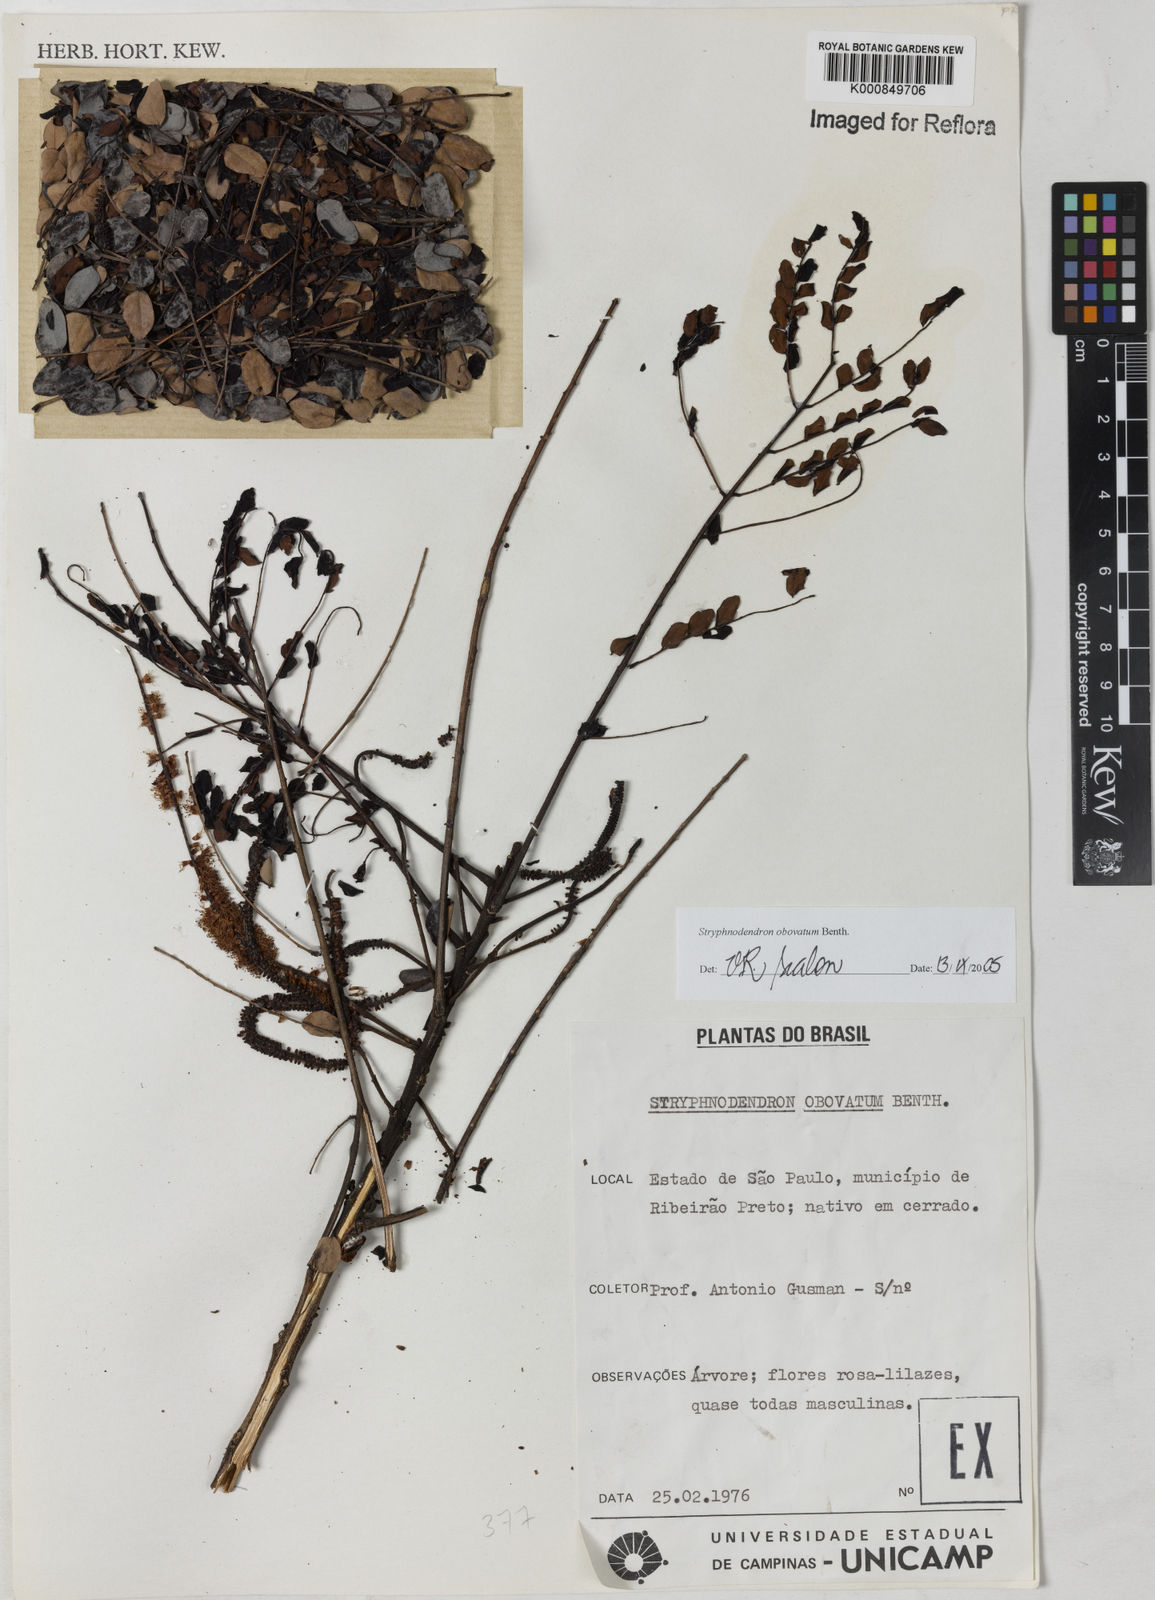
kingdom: Plantae
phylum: Tracheophyta
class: Magnoliopsida
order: Fabales
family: Fabaceae
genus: Stryphnodendron
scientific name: Stryphnodendron rotundifolium
